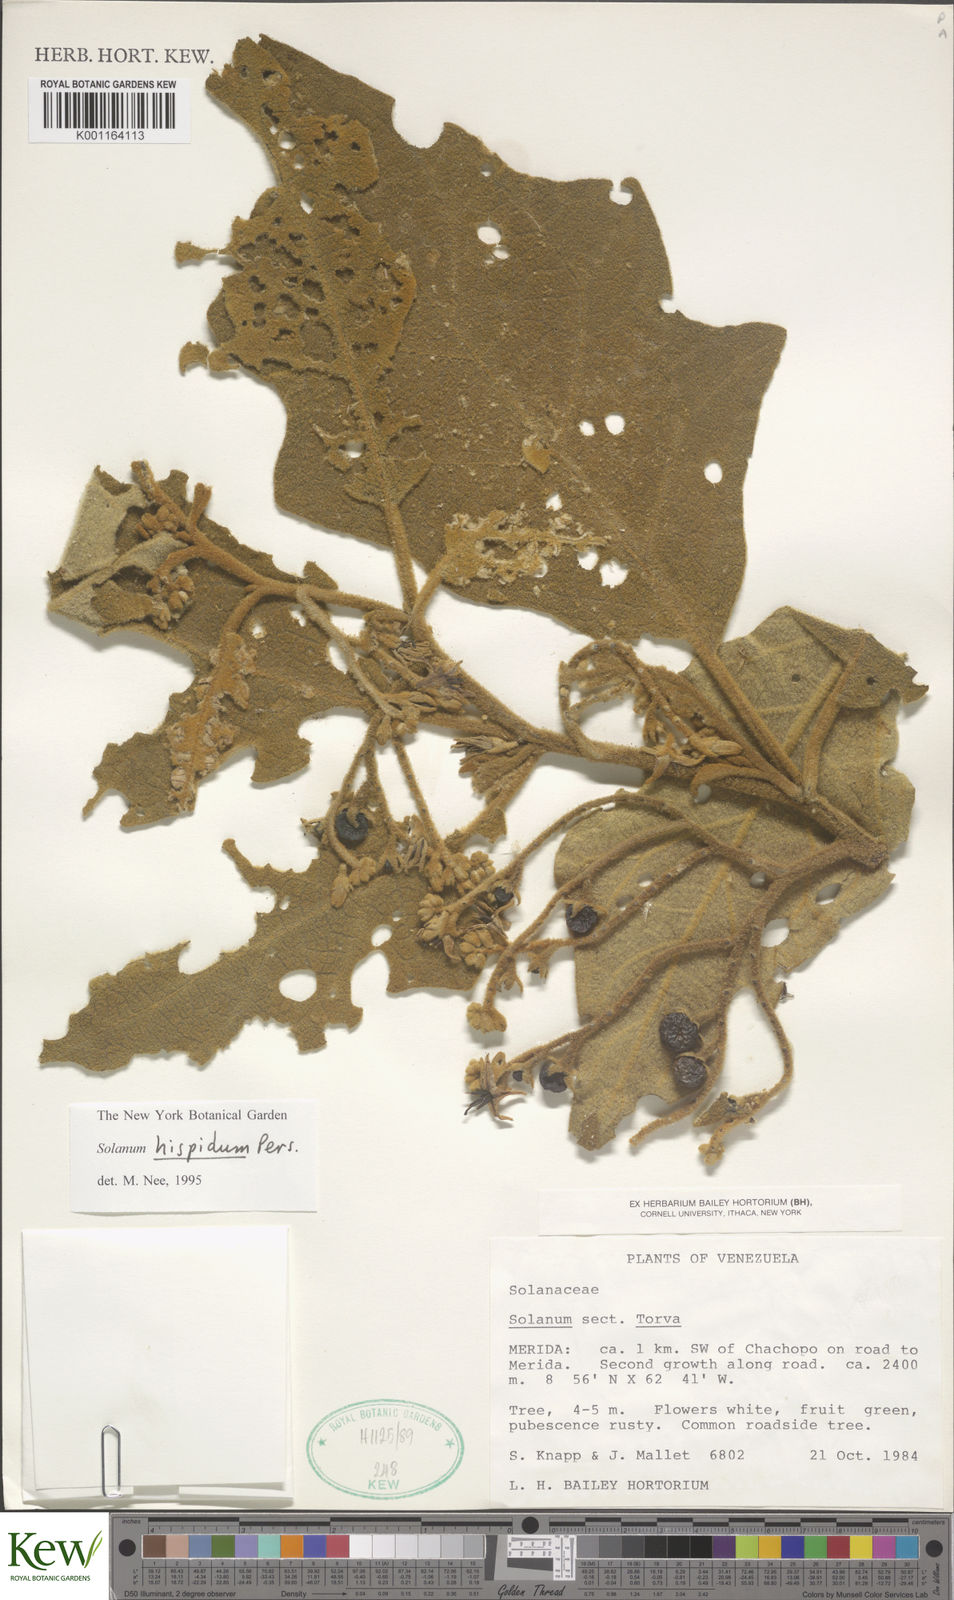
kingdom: Plantae
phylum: Tracheophyta
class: Magnoliopsida
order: Solanales
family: Solanaceae
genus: Solanum
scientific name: Solanum hirtum
